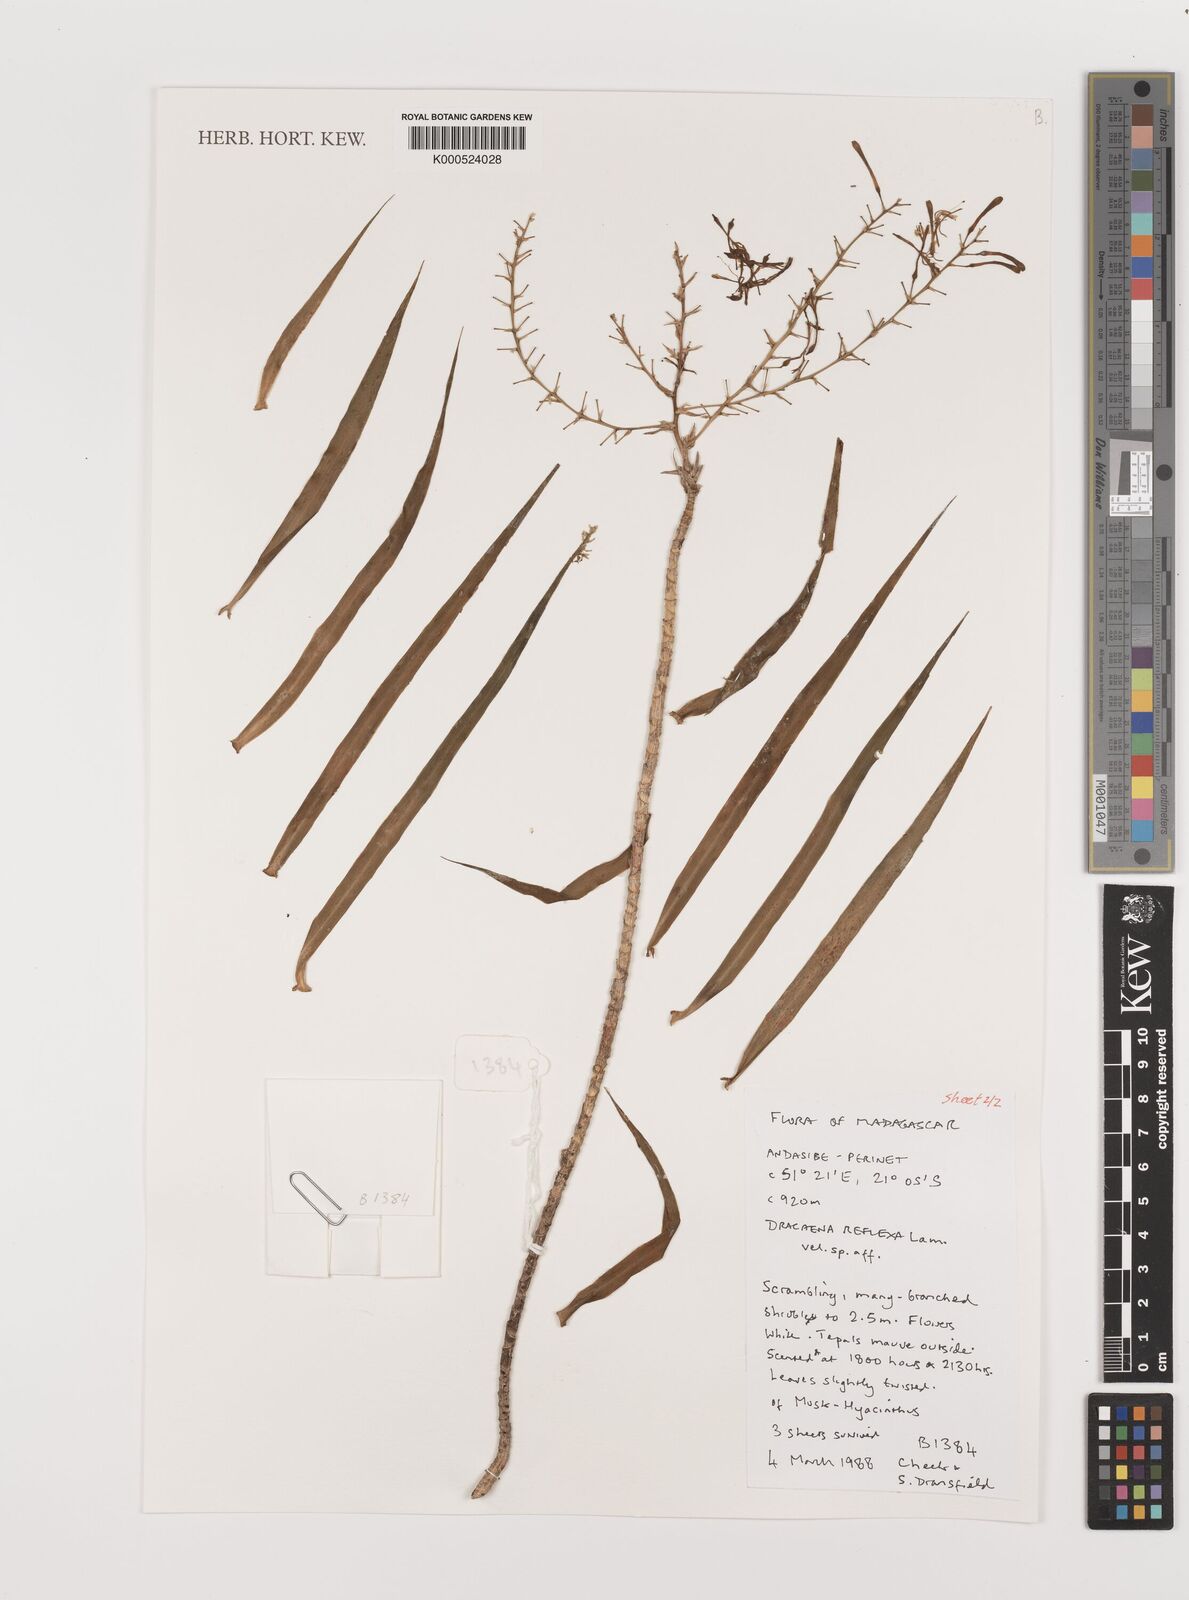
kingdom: Plantae
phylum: Tracheophyta
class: Liliopsida
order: Asparagales
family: Asparagaceae
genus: Dracaena
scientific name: Dracaena reflexa
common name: Song-of-india
